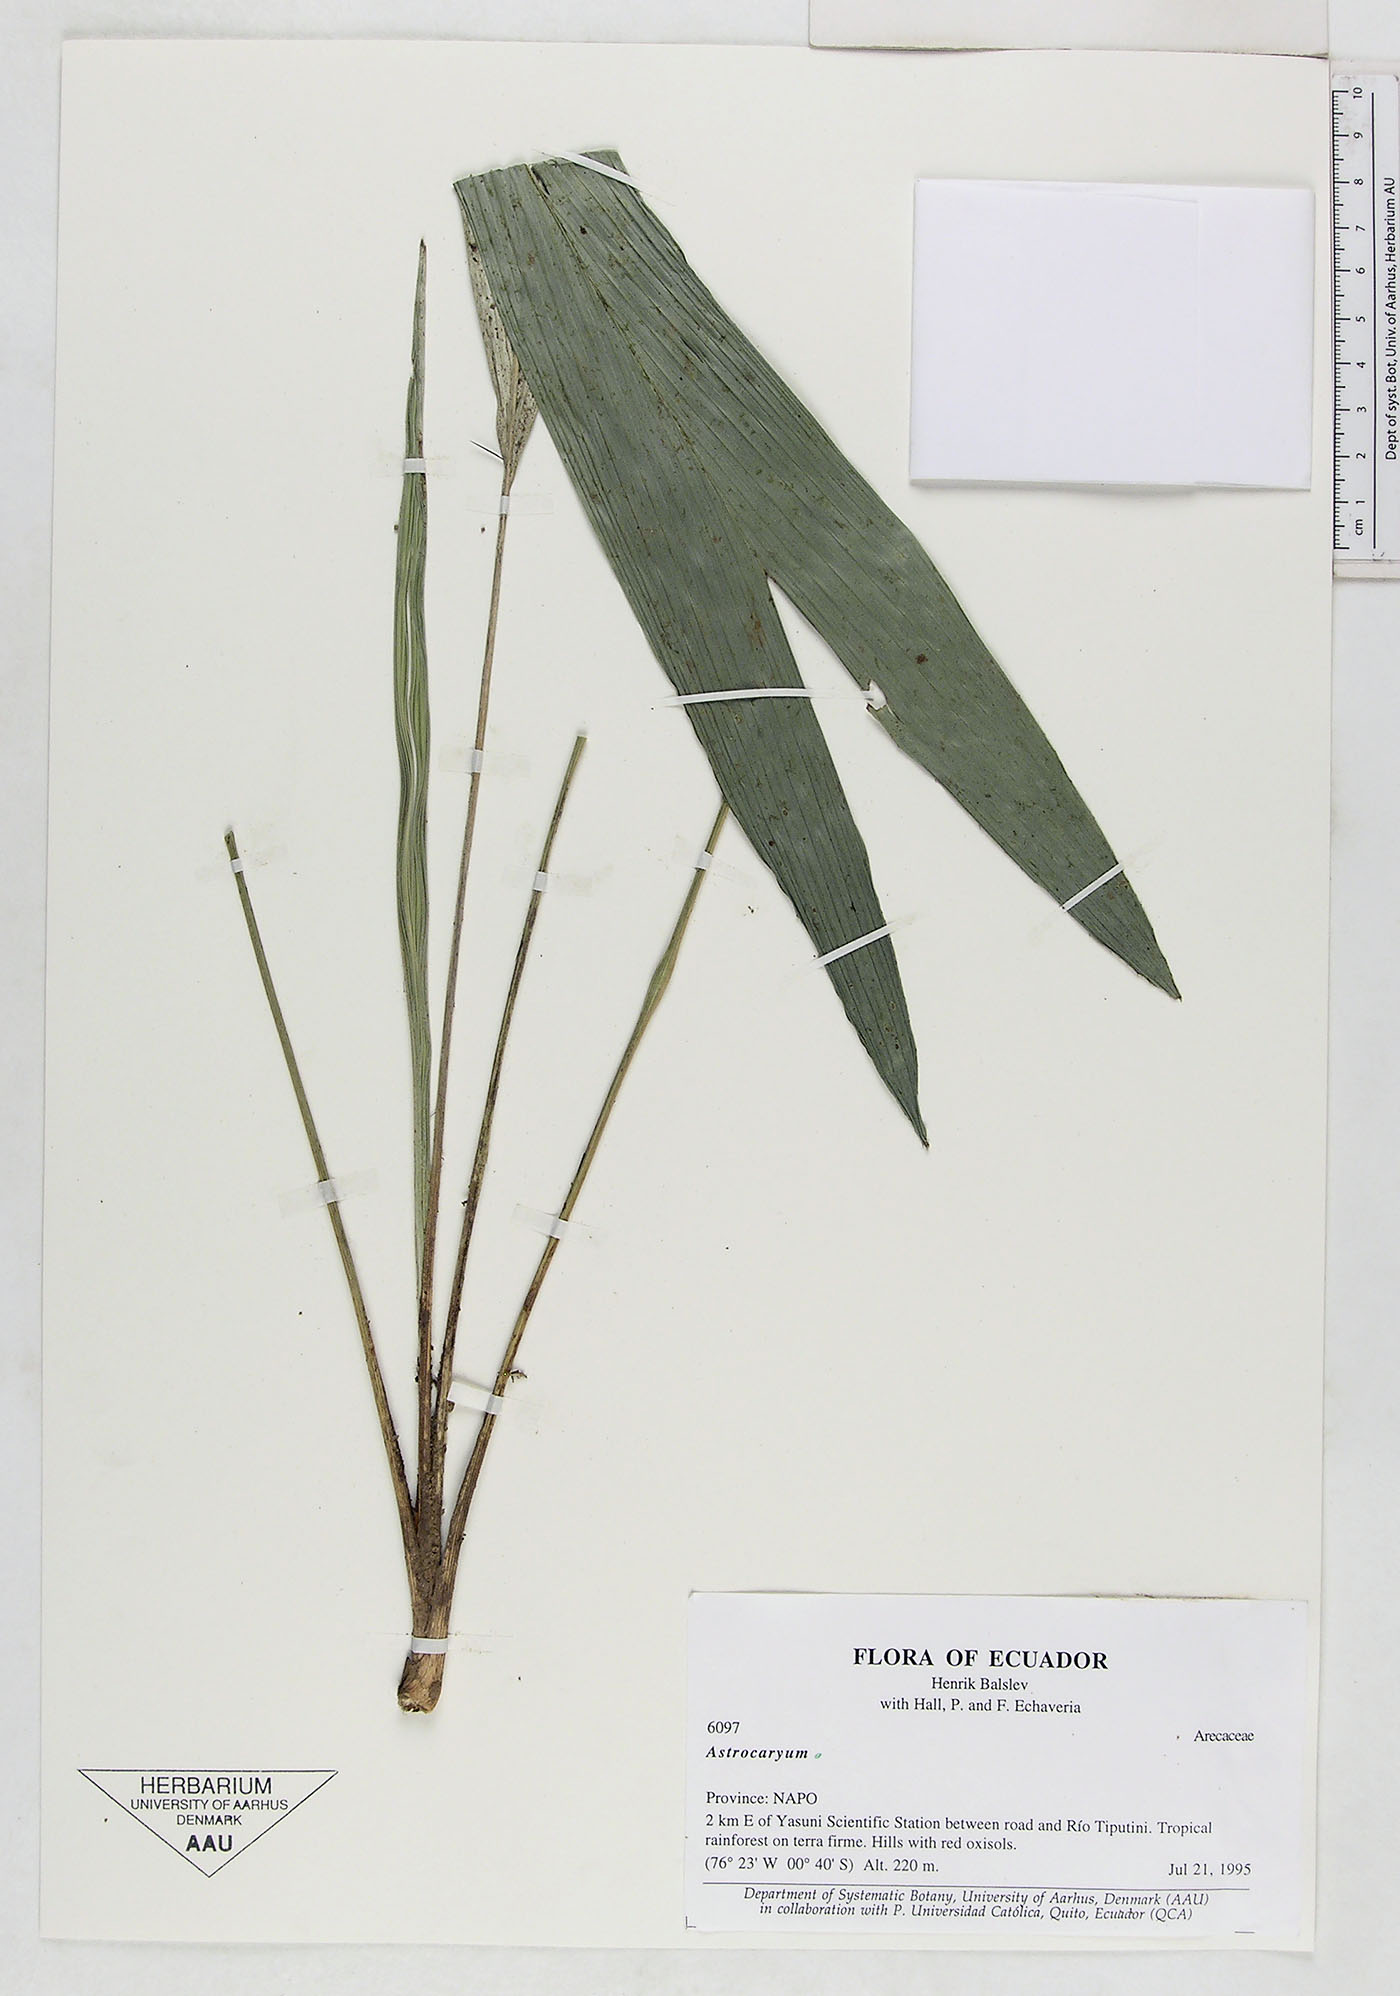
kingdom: Plantae
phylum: Tracheophyta
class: Liliopsida
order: Arecales
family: Arecaceae
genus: Astrocaryum
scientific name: Astrocaryum
